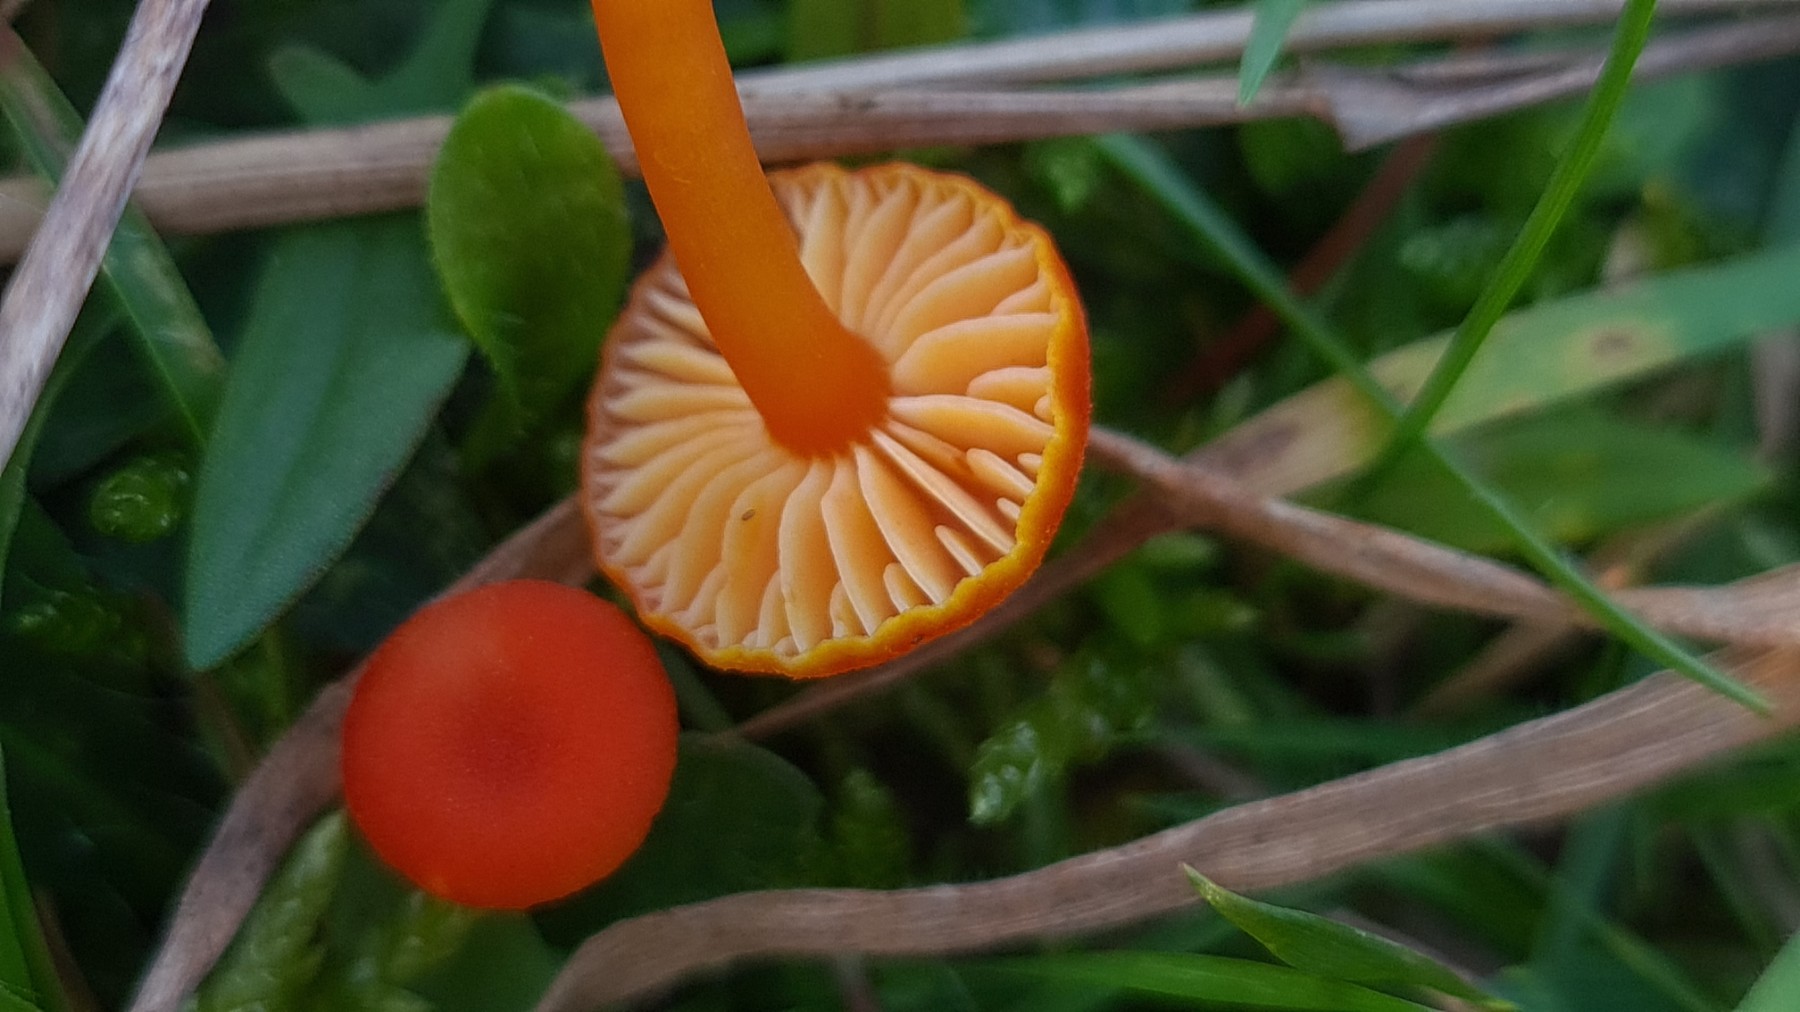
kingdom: Fungi
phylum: Basidiomycota
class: Agaricomycetes
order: Agaricales
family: Hygrophoraceae
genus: Hygrocybe
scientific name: Hygrocybe miniata
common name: mønje-vokshat
